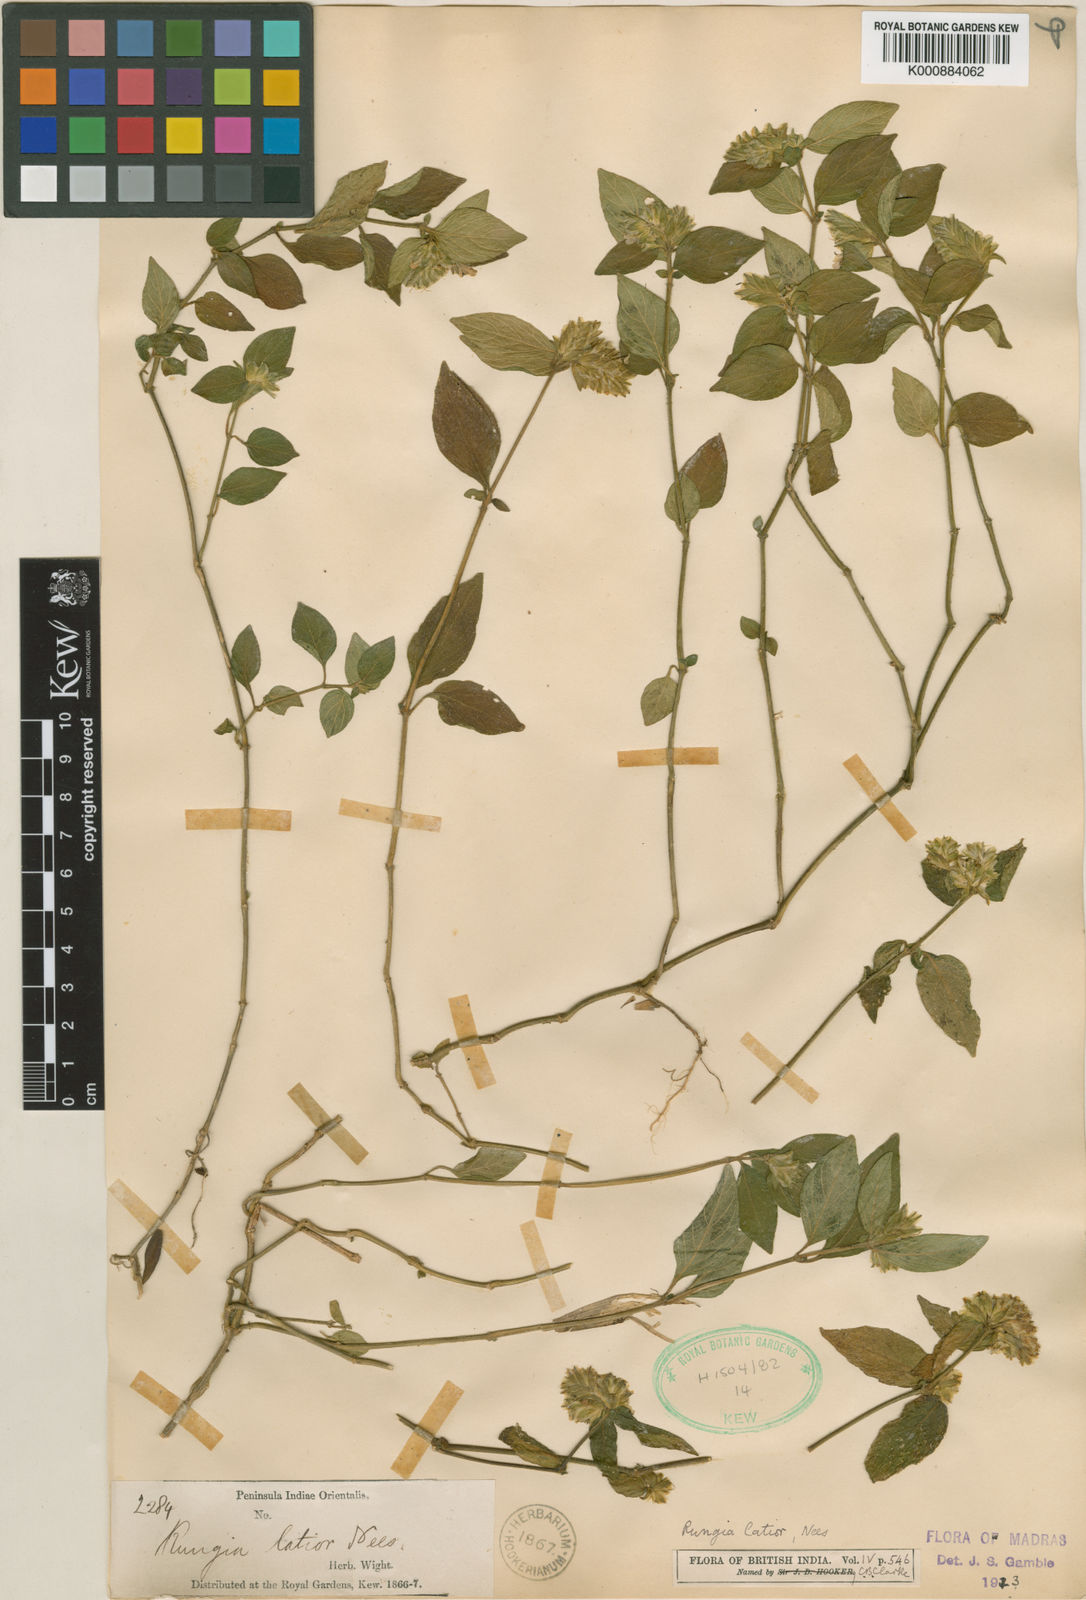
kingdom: Plantae
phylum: Tracheophyta
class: Magnoliopsida
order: Lamiales
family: Acanthaceae
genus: Justicia
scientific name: Justicia
